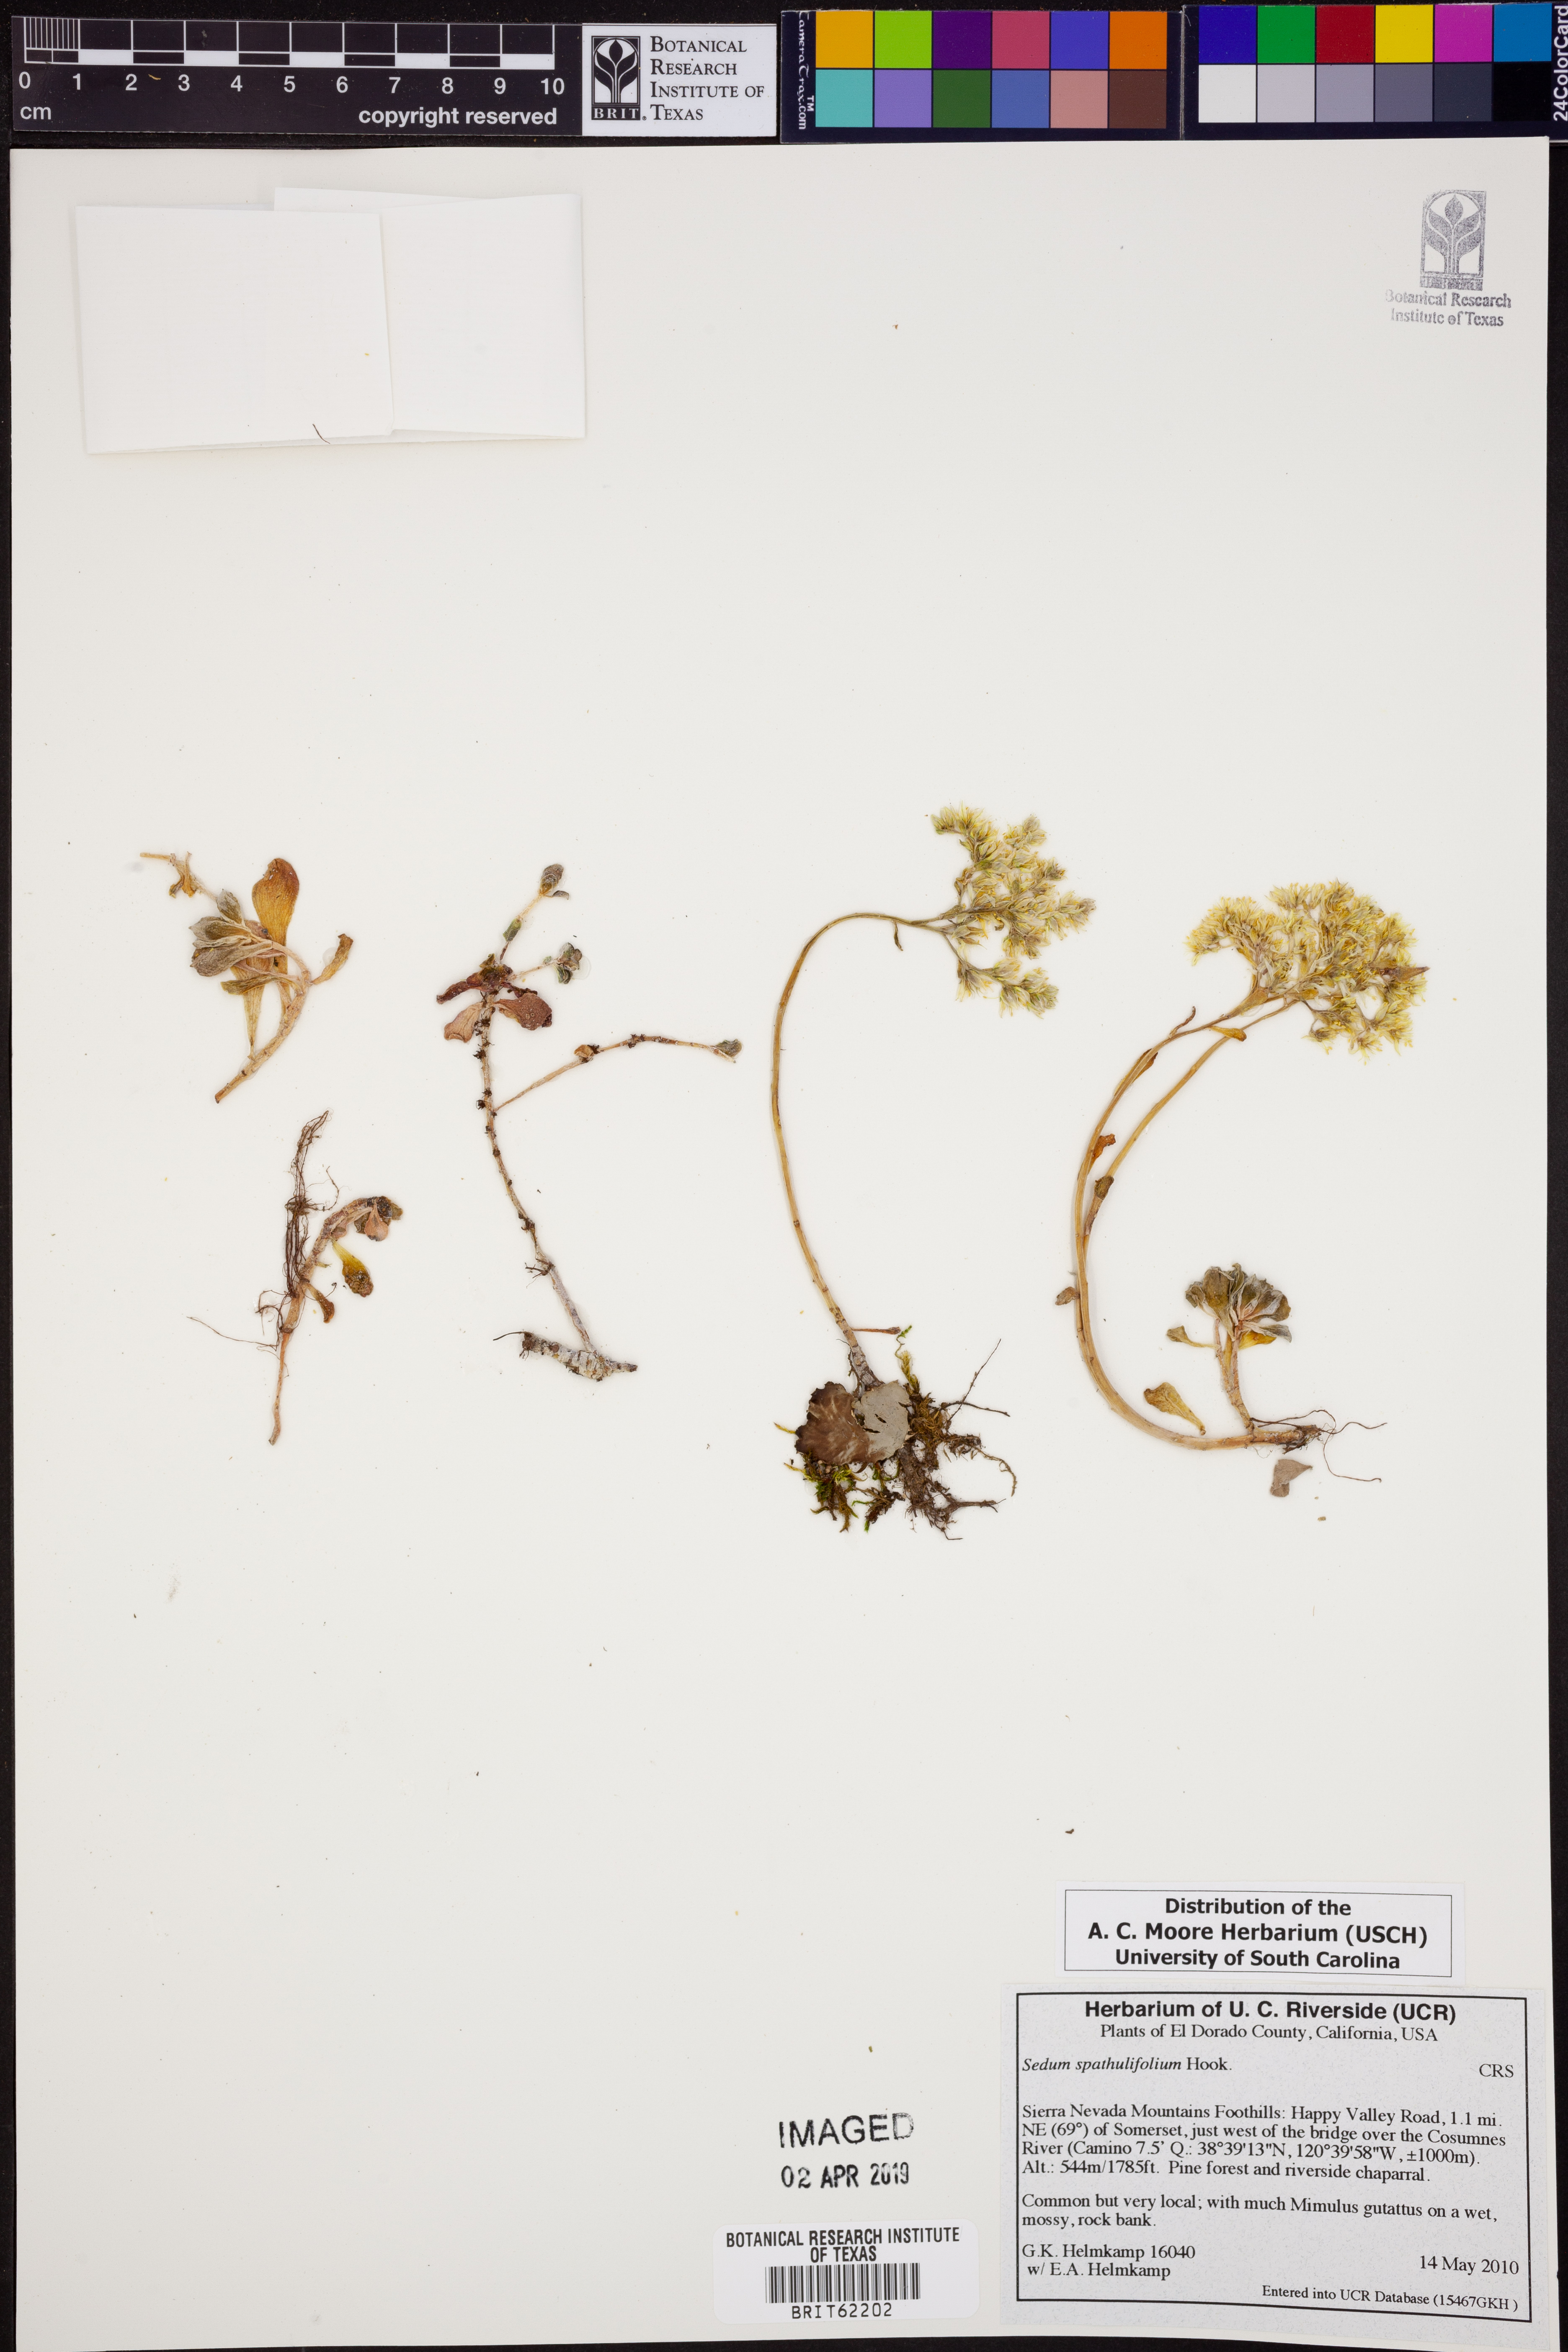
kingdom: Plantae
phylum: Tracheophyta
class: Magnoliopsida
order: Saxifragales
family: Crassulaceae
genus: Sedum
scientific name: Sedum spathulifolium
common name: Colorado stonecrop
